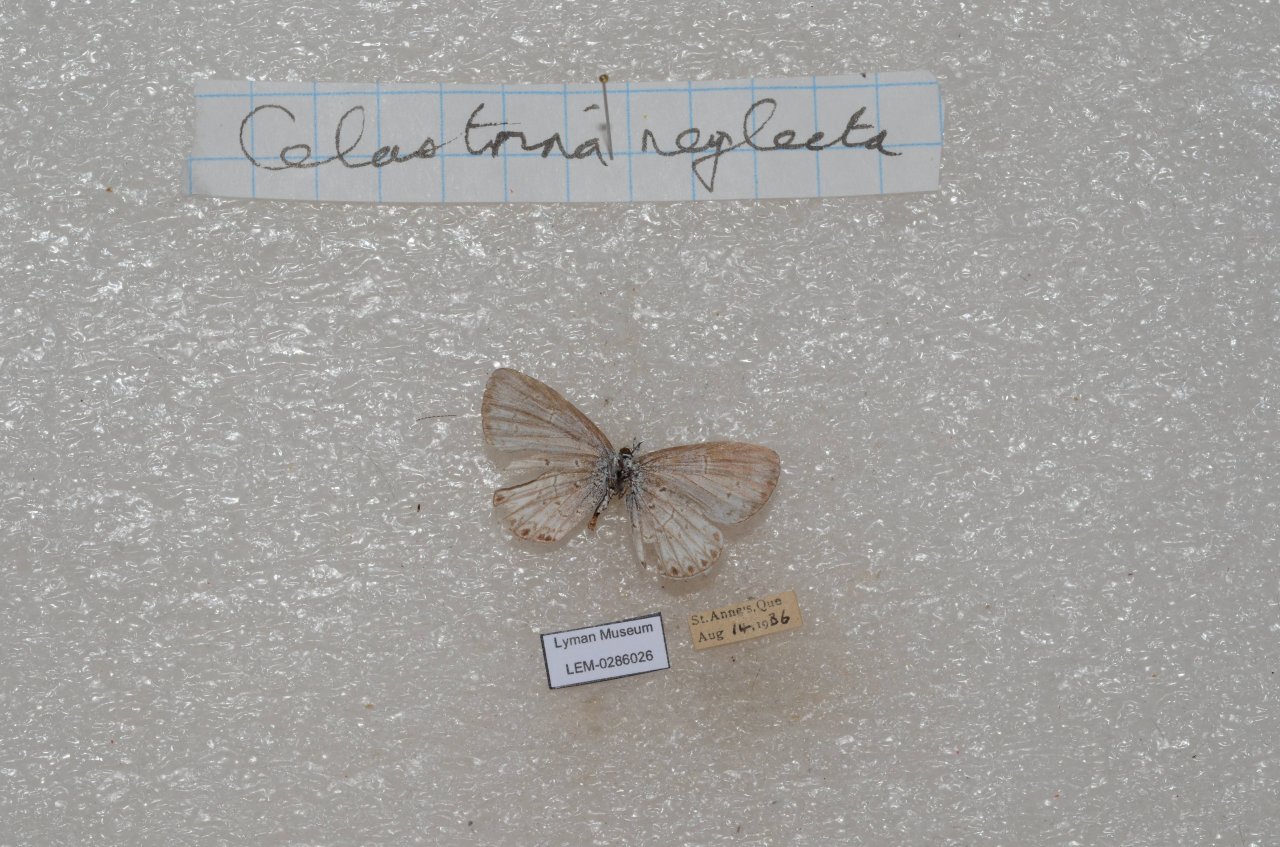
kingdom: Animalia
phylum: Arthropoda
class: Insecta
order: Lepidoptera
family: Lycaenidae
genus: Celastrina
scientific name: Celastrina lucia
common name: Northern Spring Azure
